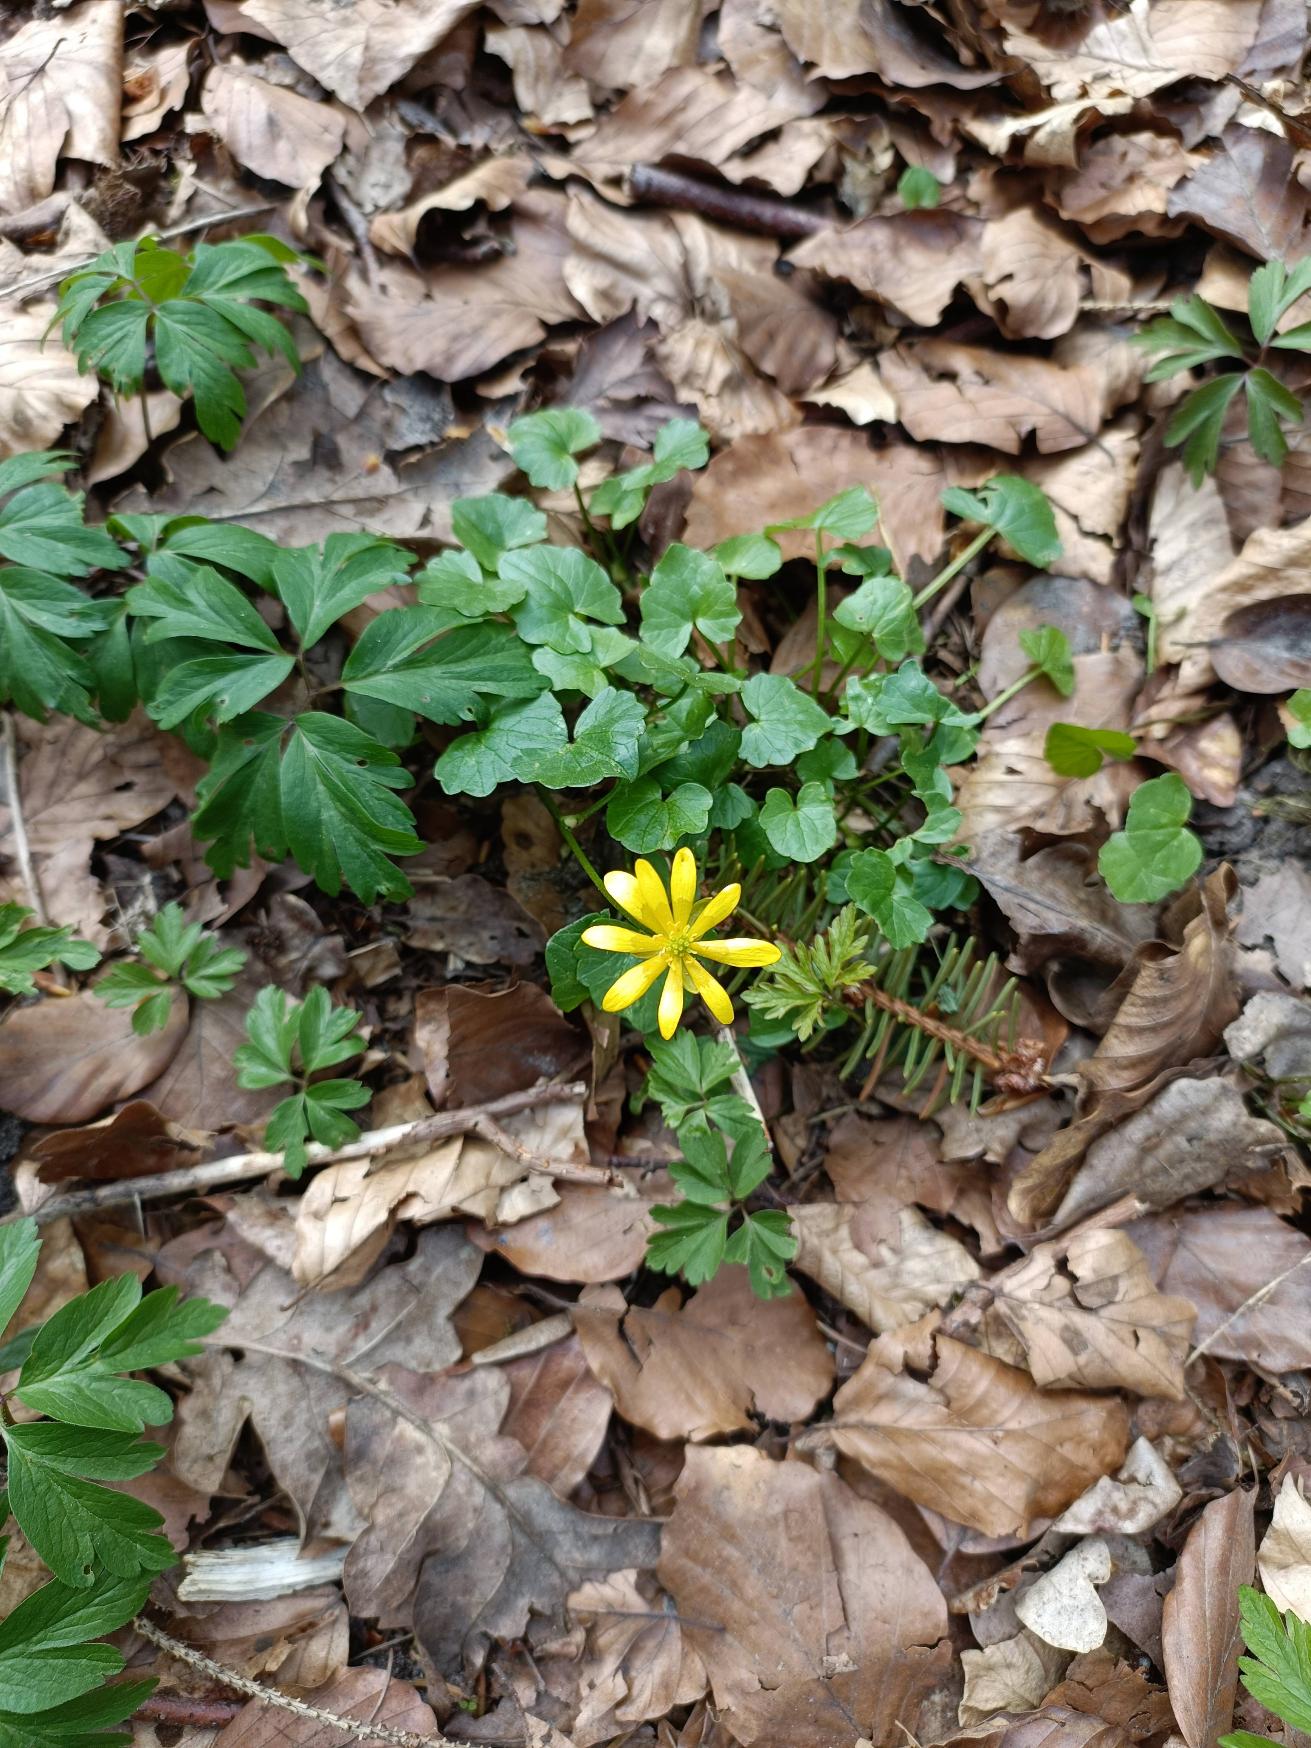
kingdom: Plantae
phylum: Tracheophyta
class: Magnoliopsida
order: Ranunculales
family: Ranunculaceae
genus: Ficaria
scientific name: Ficaria verna
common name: Vorterod
